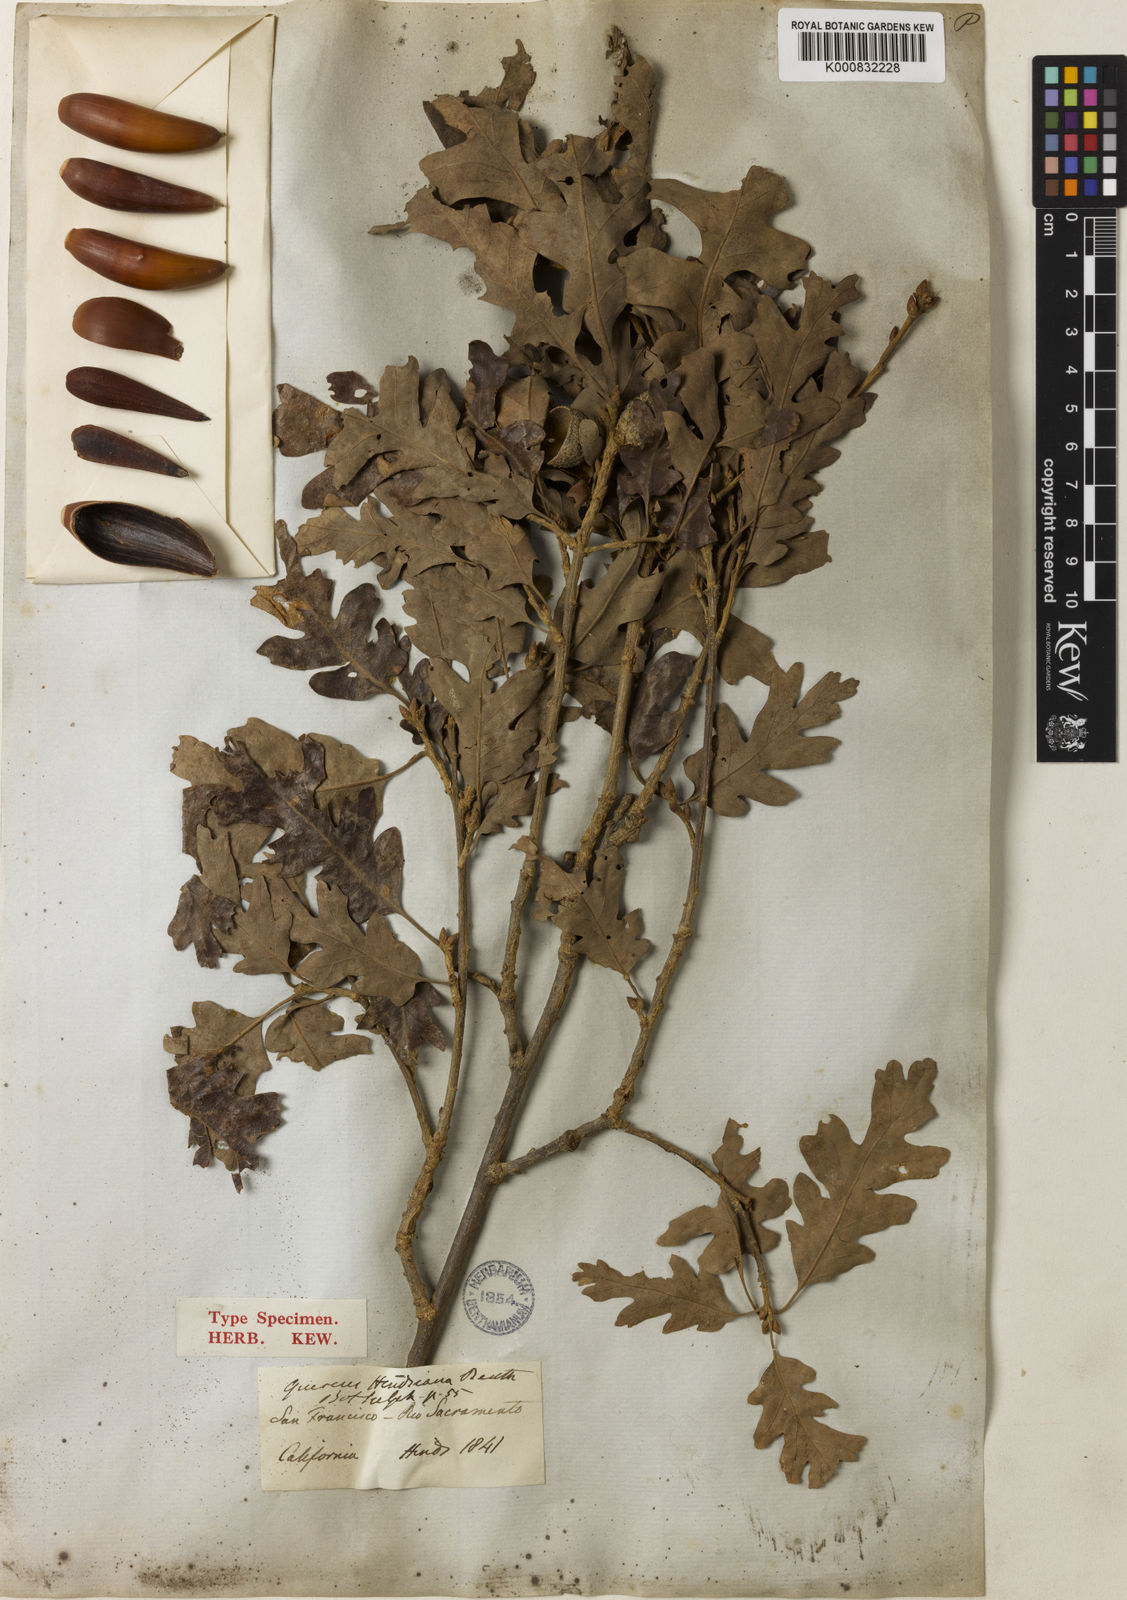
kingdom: Plantae
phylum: Tracheophyta
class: Magnoliopsida
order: Fagales
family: Fagaceae
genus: Quercus
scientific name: Quercus
